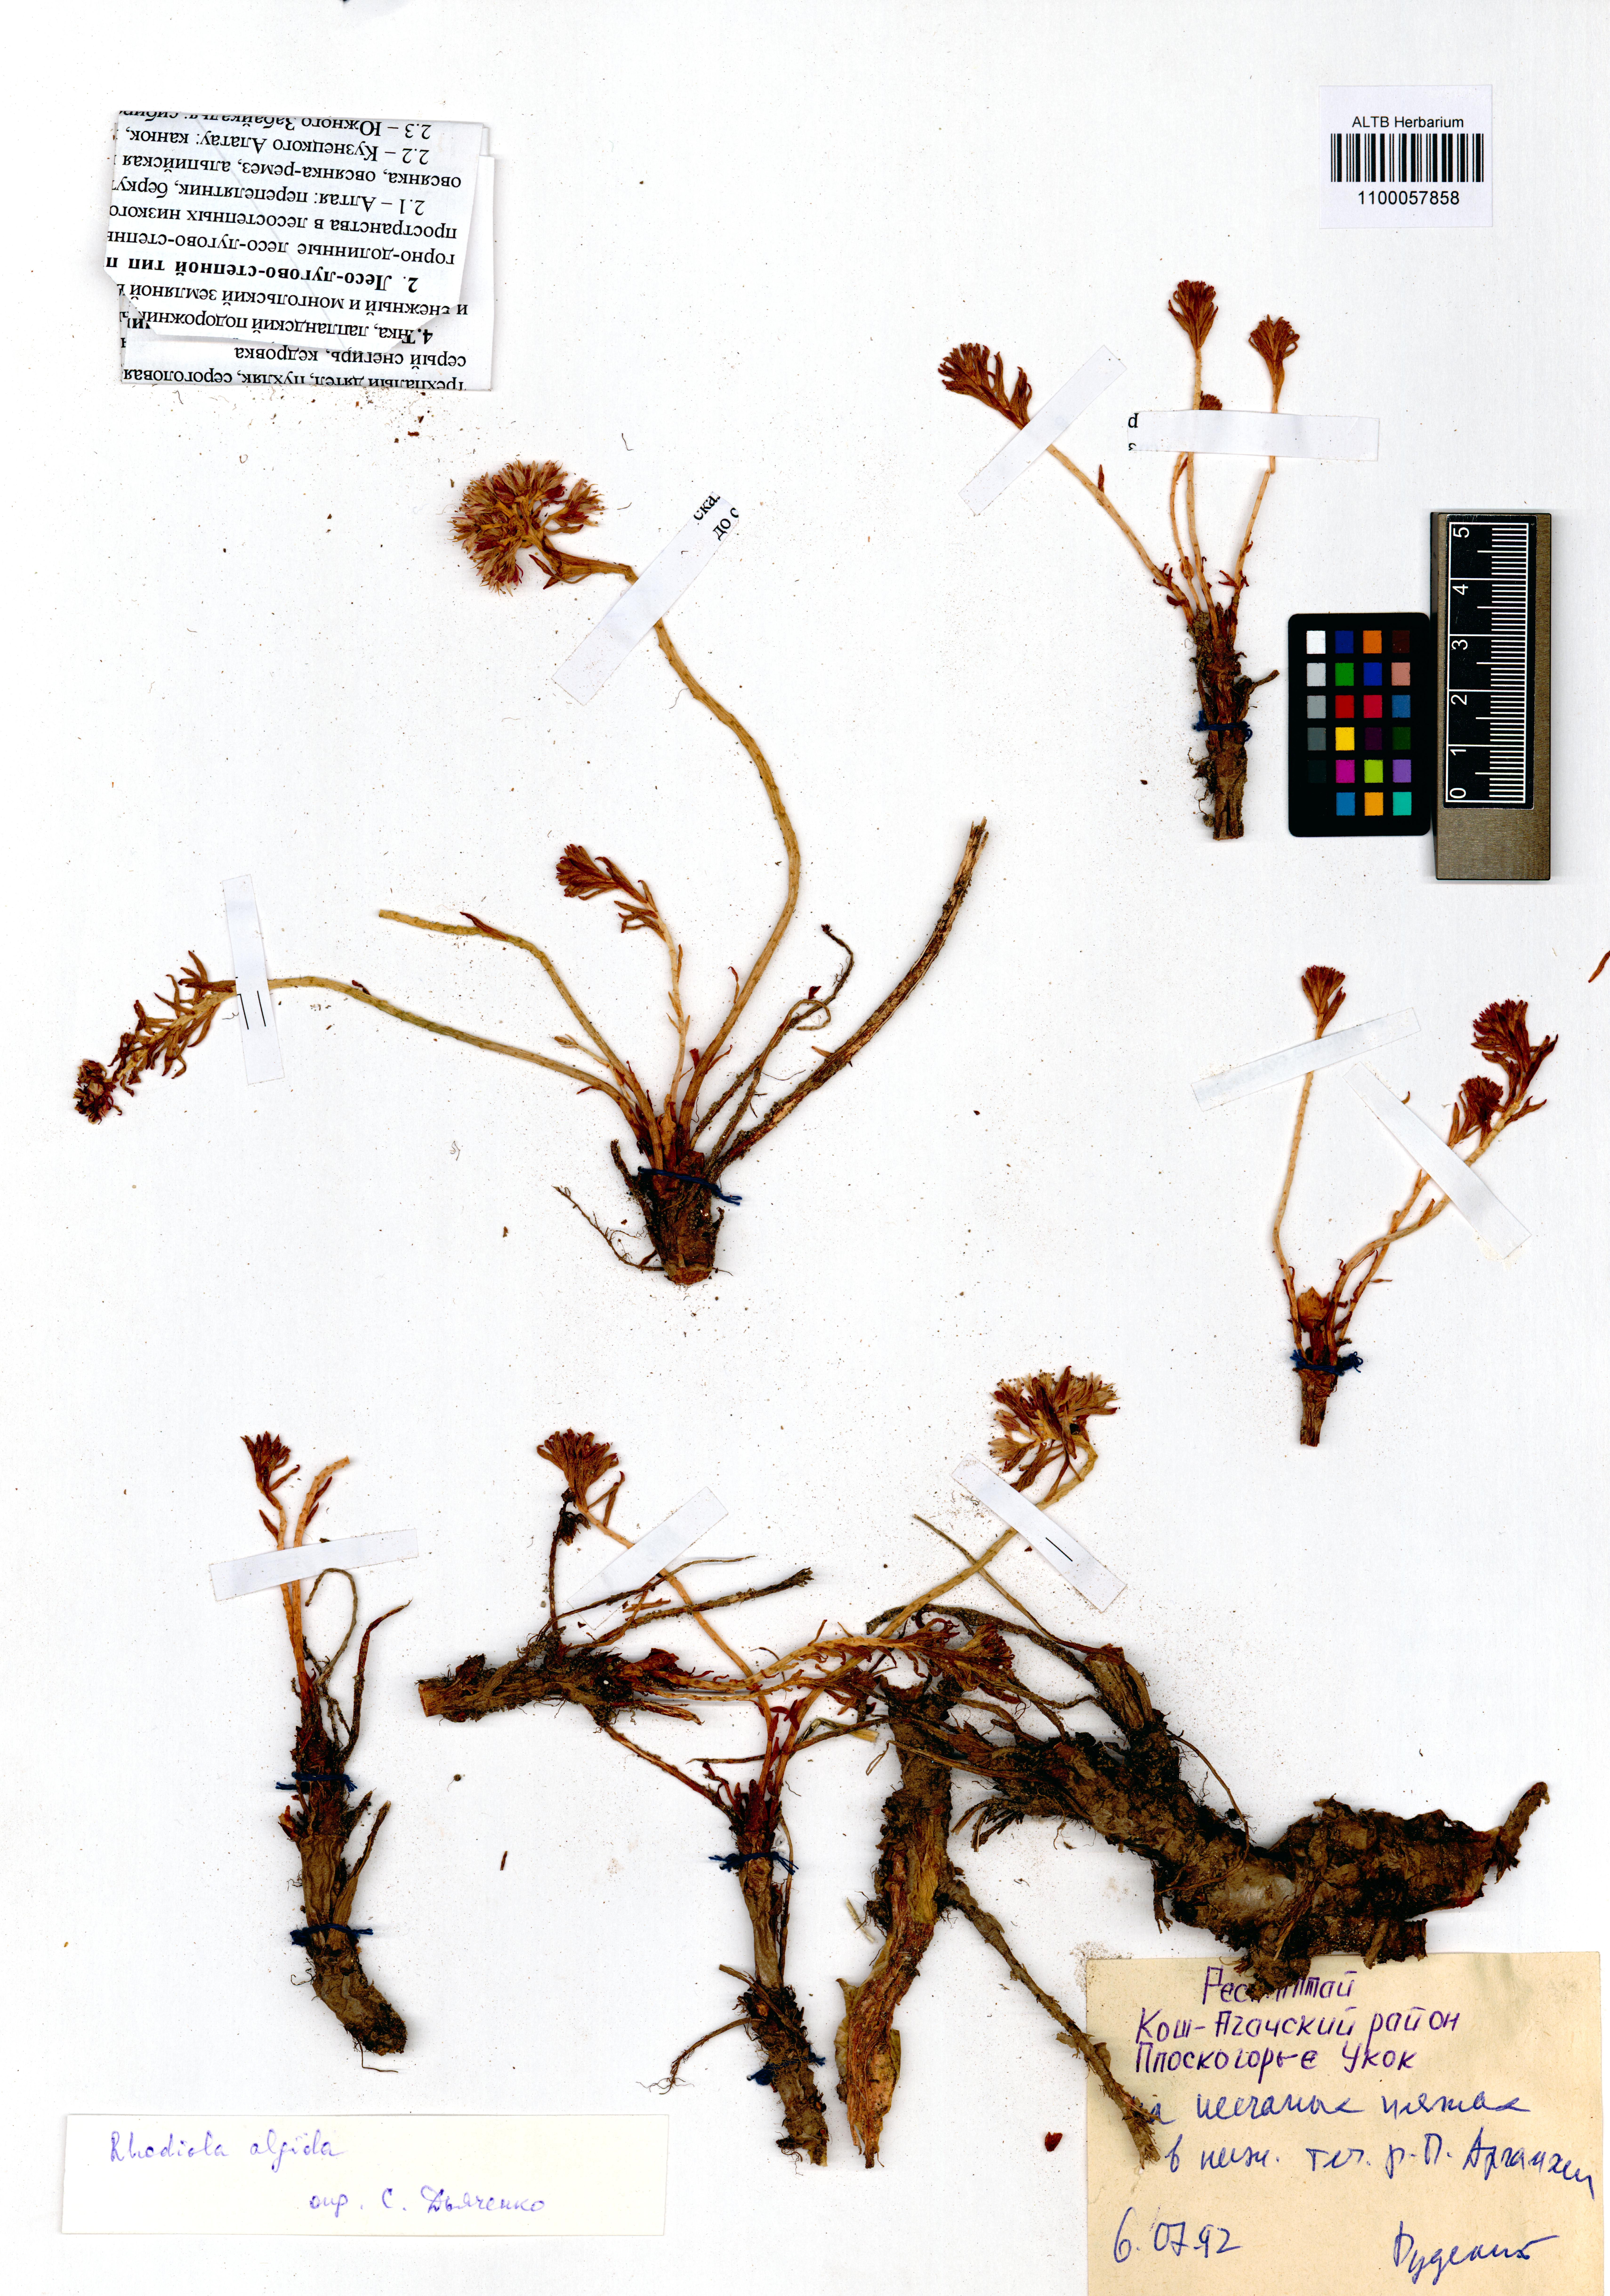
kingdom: Plantae
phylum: Tracheophyta
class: Magnoliopsida
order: Saxifragales
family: Crassulaceae
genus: Rhodiola
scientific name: Rhodiola algida
